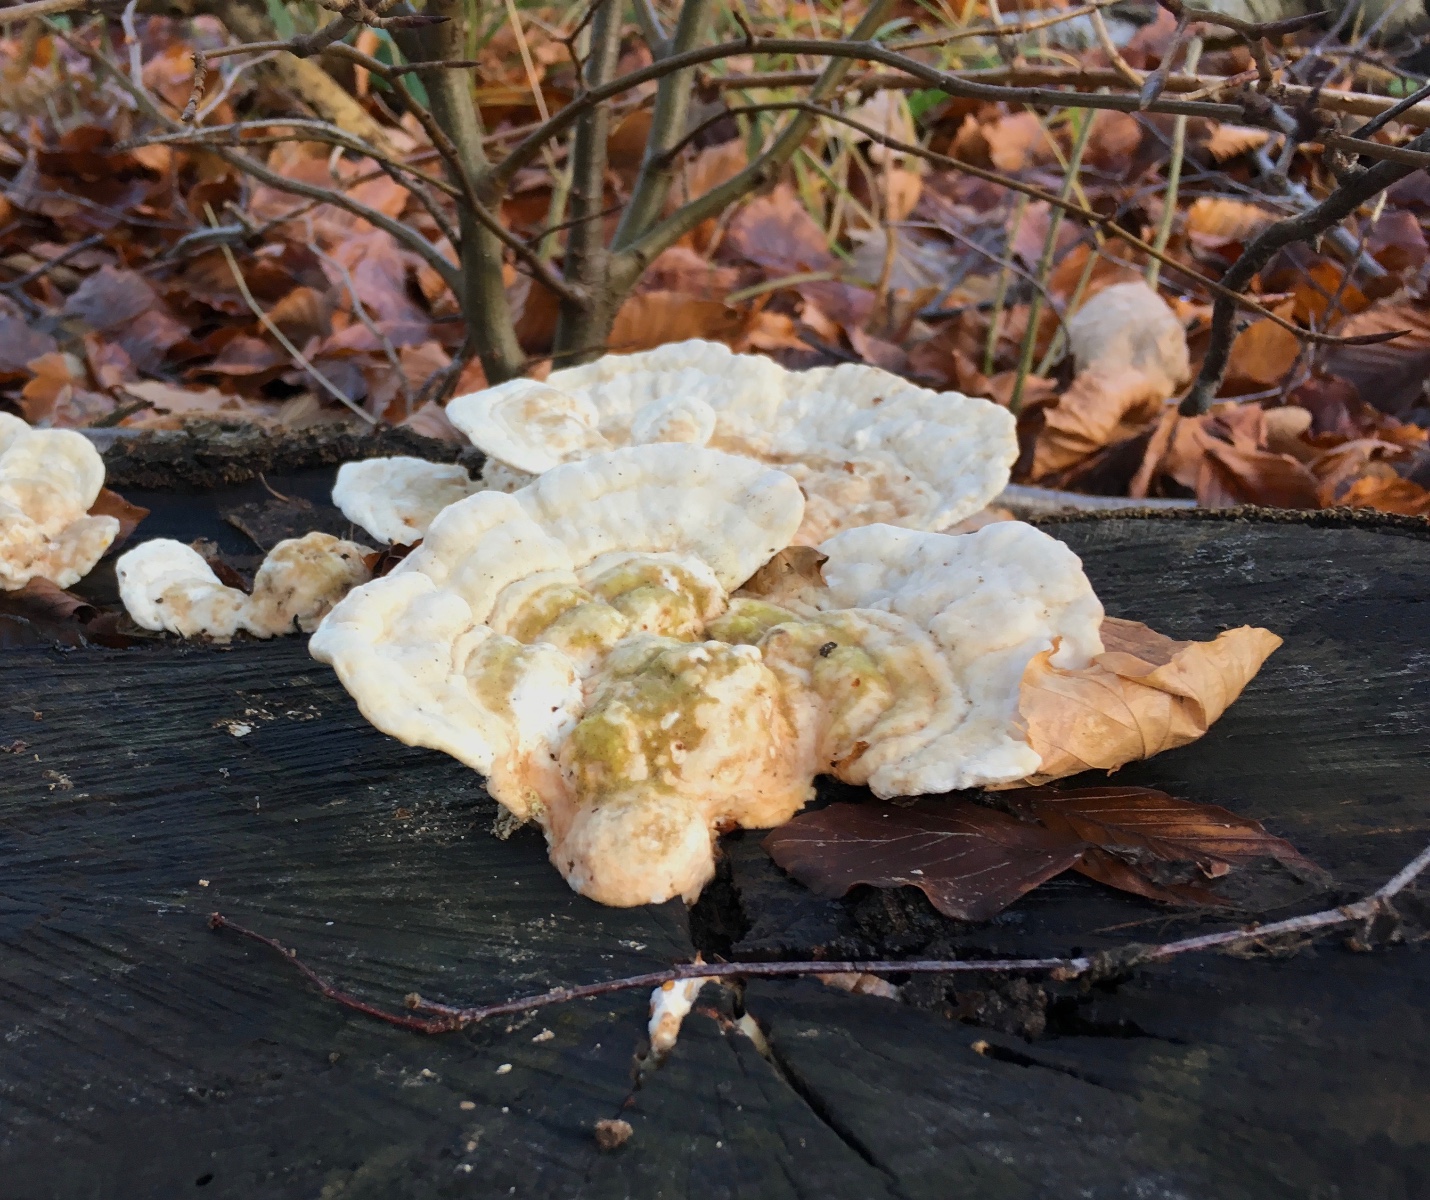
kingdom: Fungi
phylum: Basidiomycota
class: Agaricomycetes
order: Polyporales
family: Polyporaceae
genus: Trametes
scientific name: Trametes gibbosa
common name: puklet læderporesvamp
